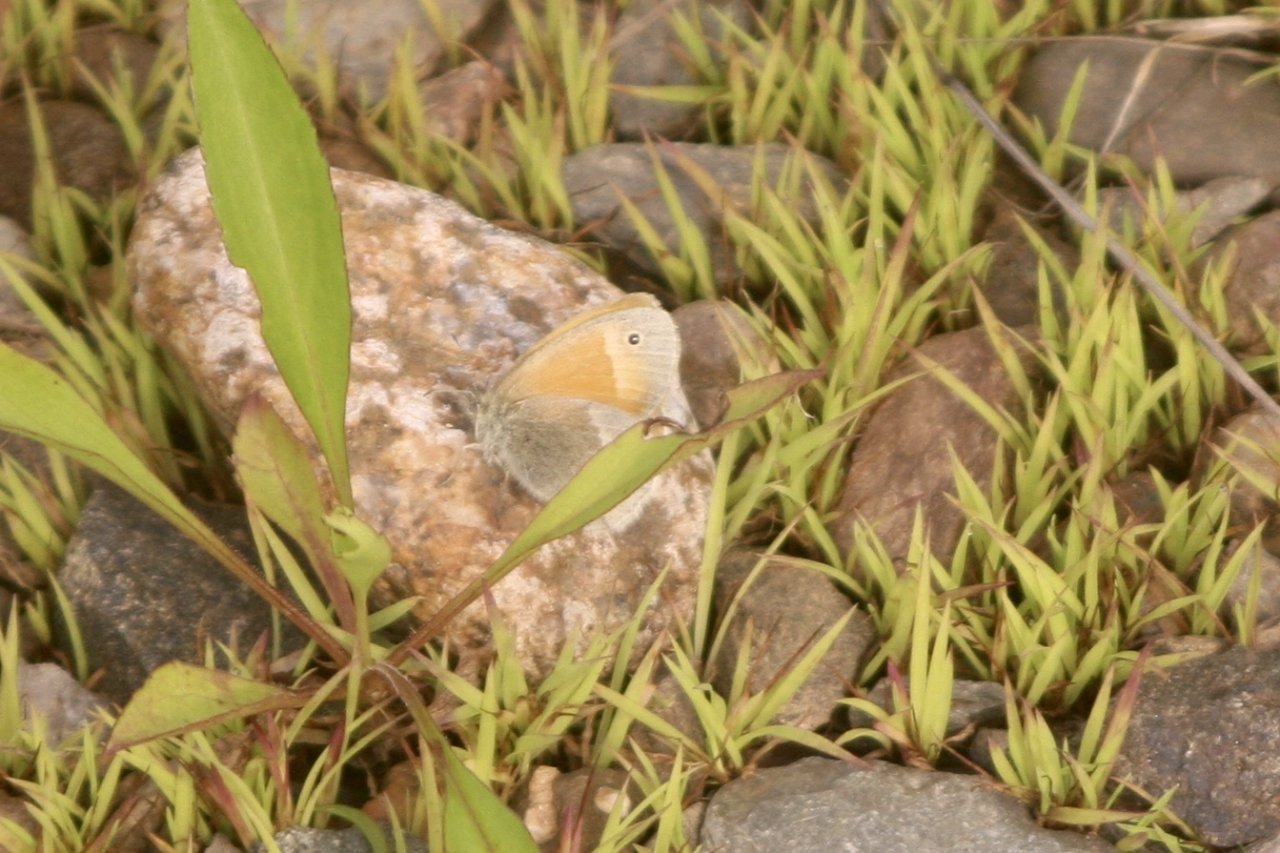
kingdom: Animalia
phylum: Arthropoda
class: Insecta
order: Lepidoptera
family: Nymphalidae
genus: Coenonympha
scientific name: Coenonympha tullia
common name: Large Heath
